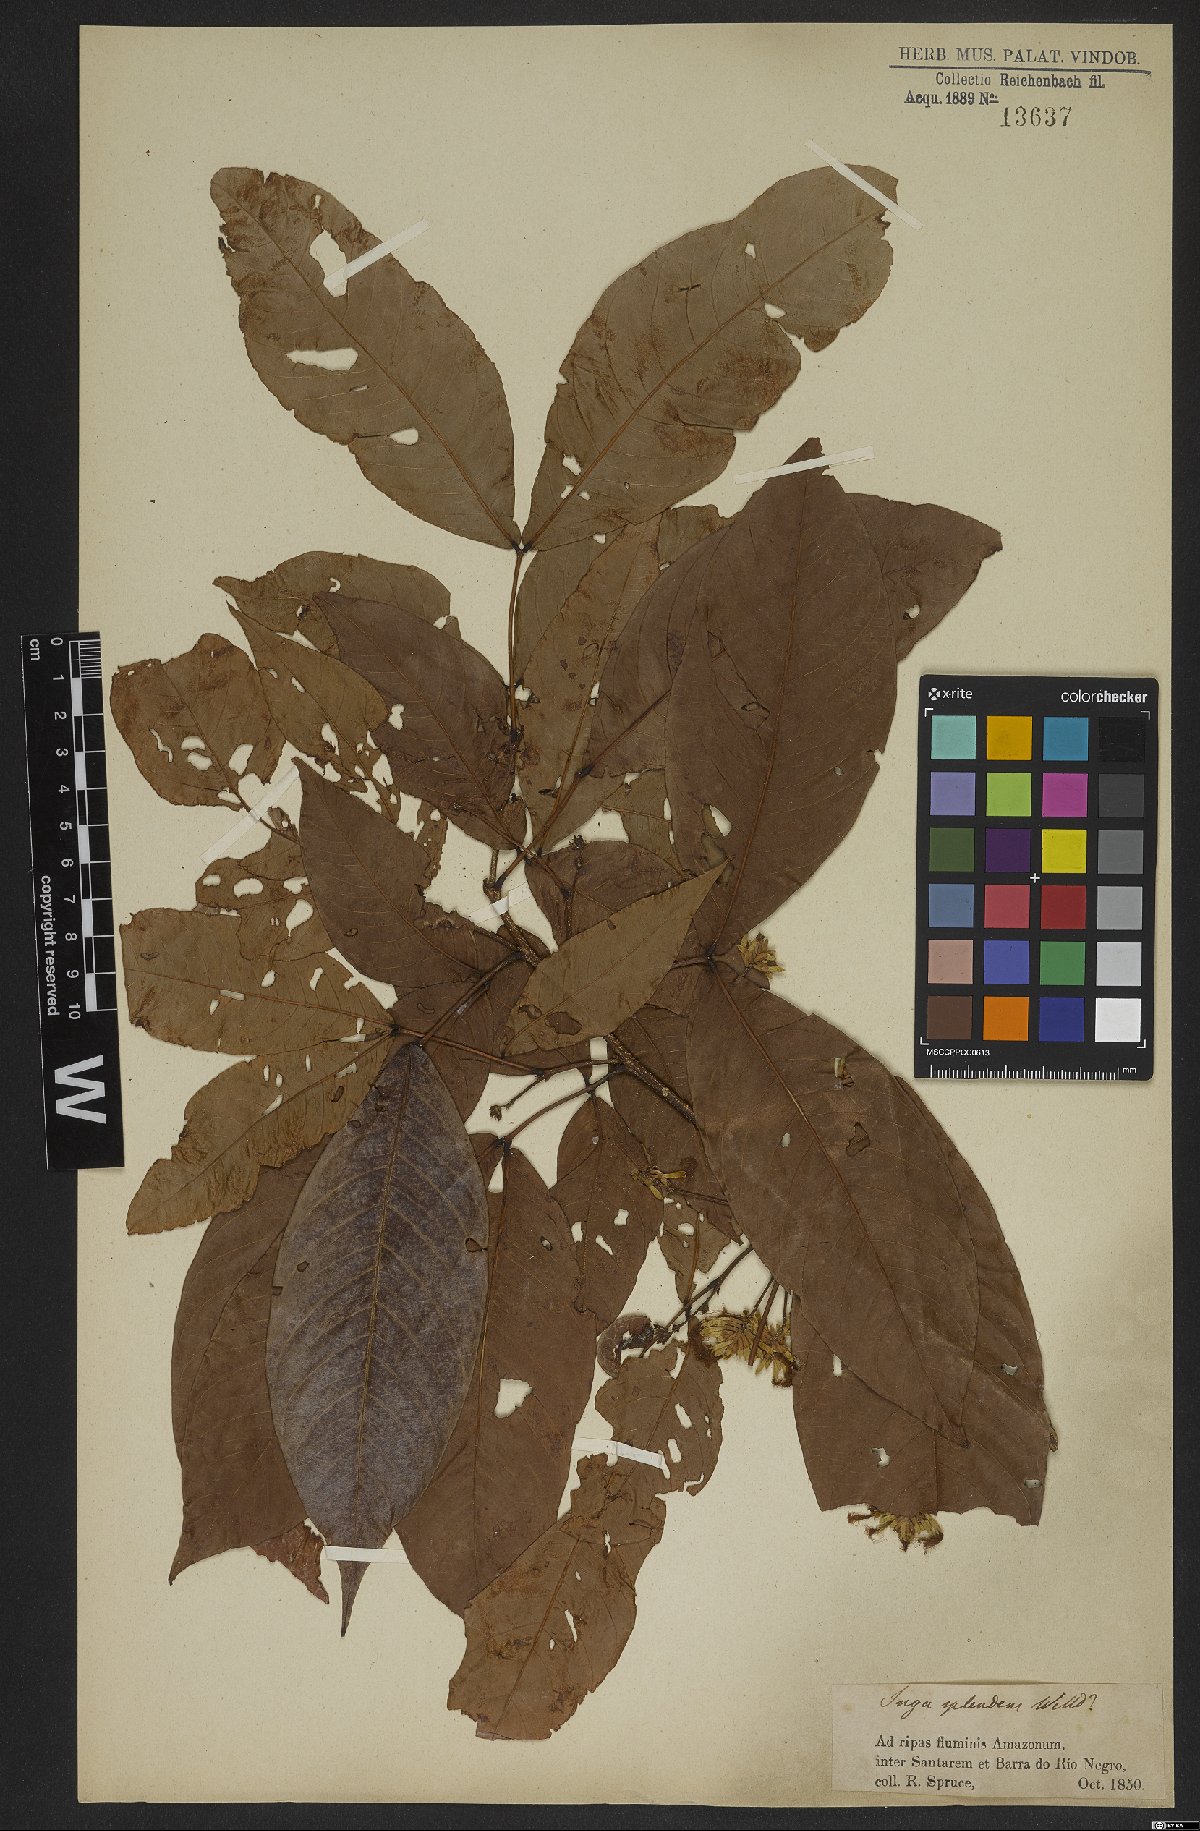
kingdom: Plantae
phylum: Tracheophyta
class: Magnoliopsida
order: Fabales
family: Fabaceae
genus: Inga
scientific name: Inga splendens
